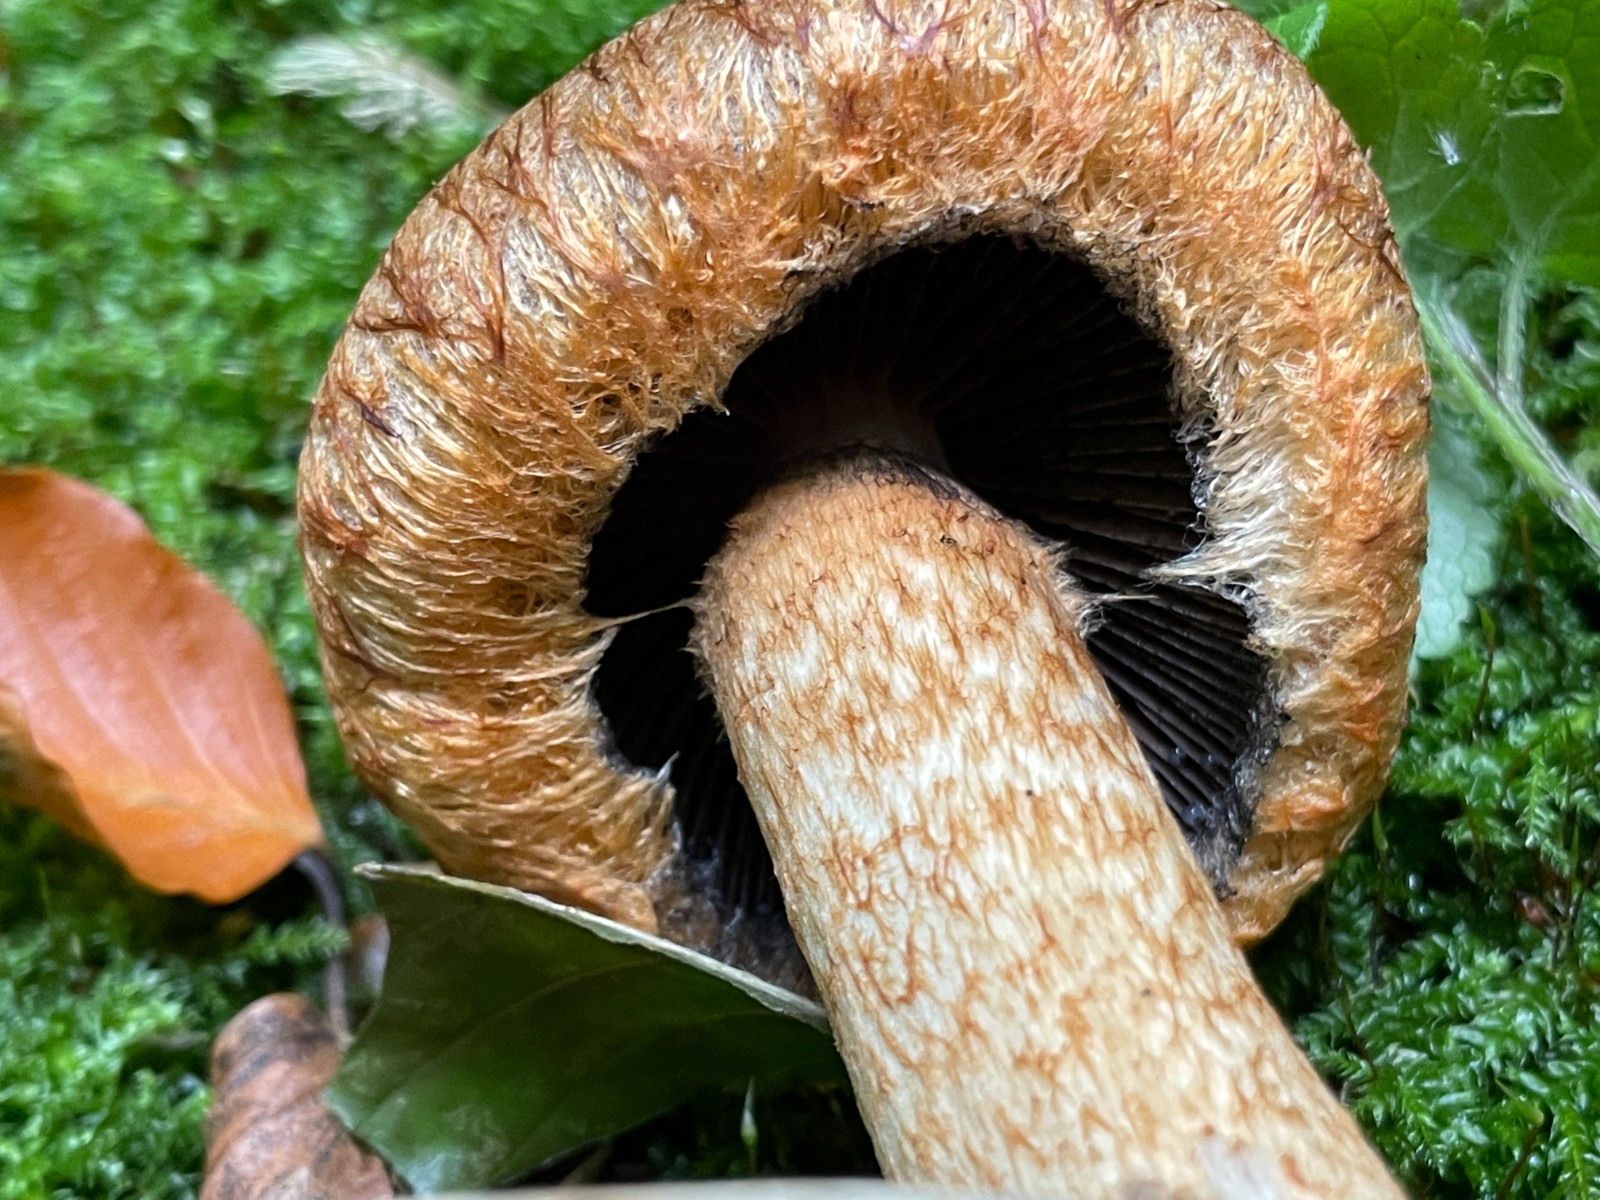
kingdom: Fungi
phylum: Basidiomycota
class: Agaricomycetes
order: Agaricales
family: Psathyrellaceae
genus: Lacrymaria
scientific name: Lacrymaria pyrotricha
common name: ildhåret mørkhat
